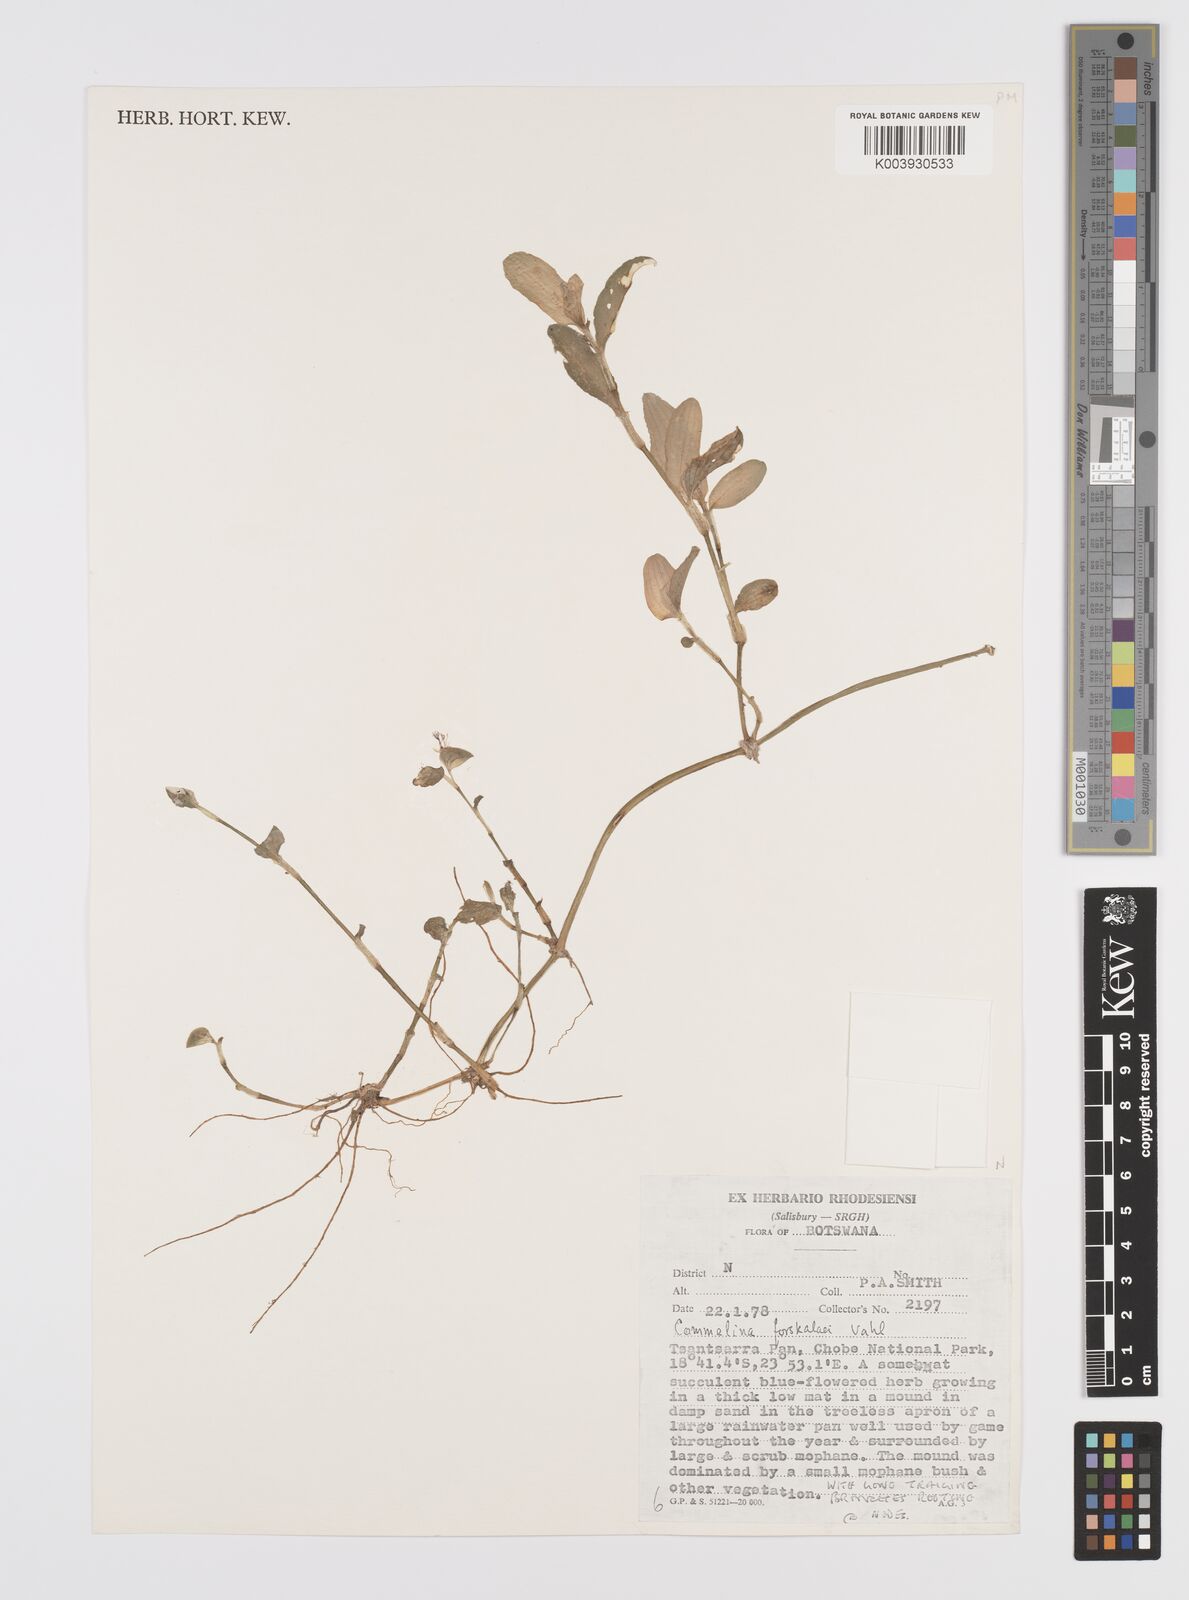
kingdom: Plantae
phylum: Tracheophyta
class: Liliopsida
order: Commelinales
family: Commelinaceae
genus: Commelina
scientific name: Commelina forskaolii
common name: Rat's ear
